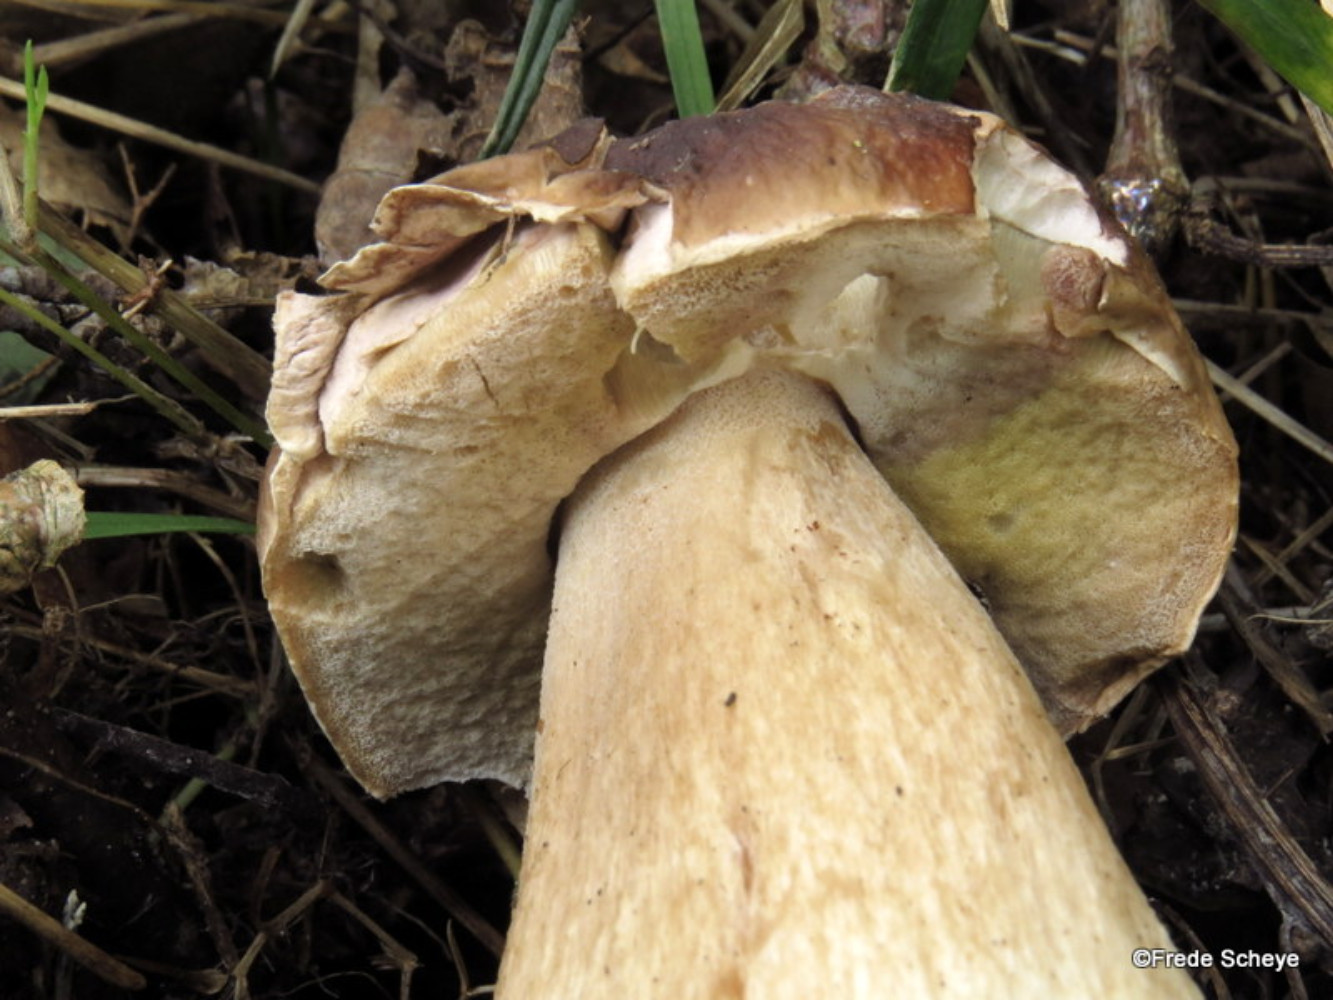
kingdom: Fungi
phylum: Basidiomycota
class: Agaricomycetes
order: Boletales
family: Boletaceae
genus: Boletus
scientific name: Boletus edulis
